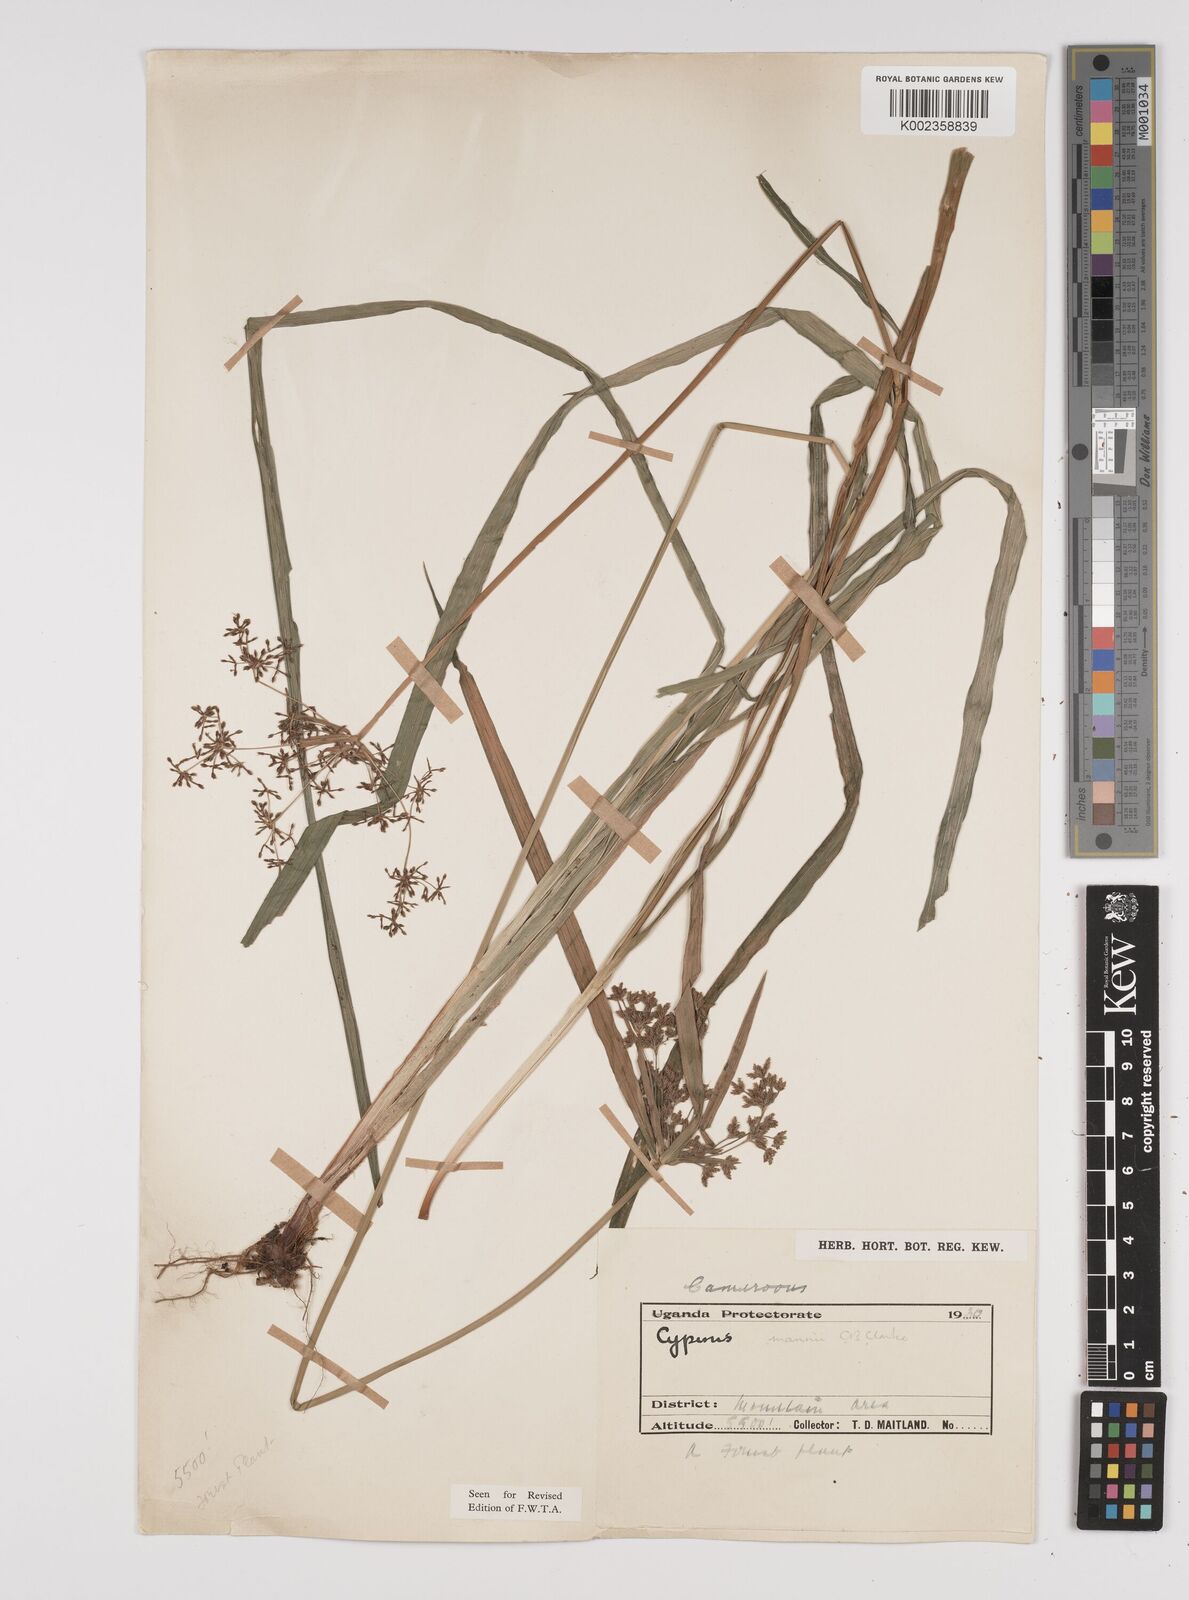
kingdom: Plantae
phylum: Tracheophyta
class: Liliopsida
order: Poales
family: Cyperaceae
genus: Cyperus
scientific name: Cyperus baronii
